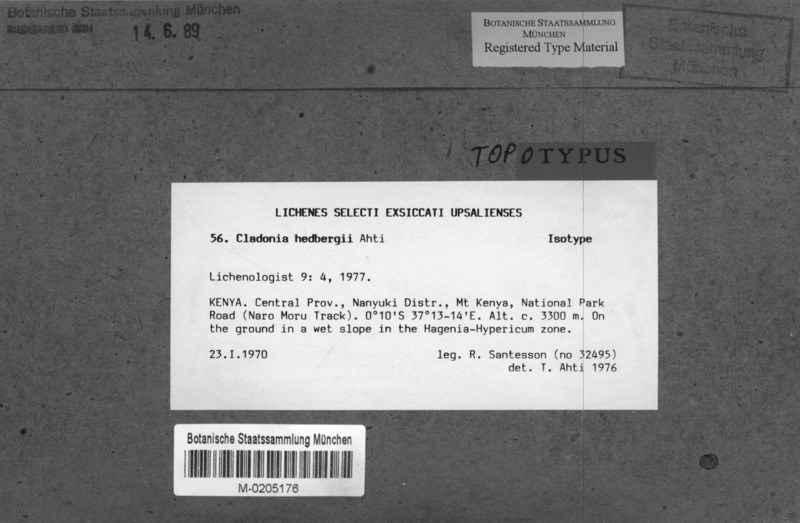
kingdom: Fungi
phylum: Ascomycota
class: Lecanoromycetes
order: Lecanorales
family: Cladoniaceae
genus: Cladonia
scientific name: Cladonia hedbergii
